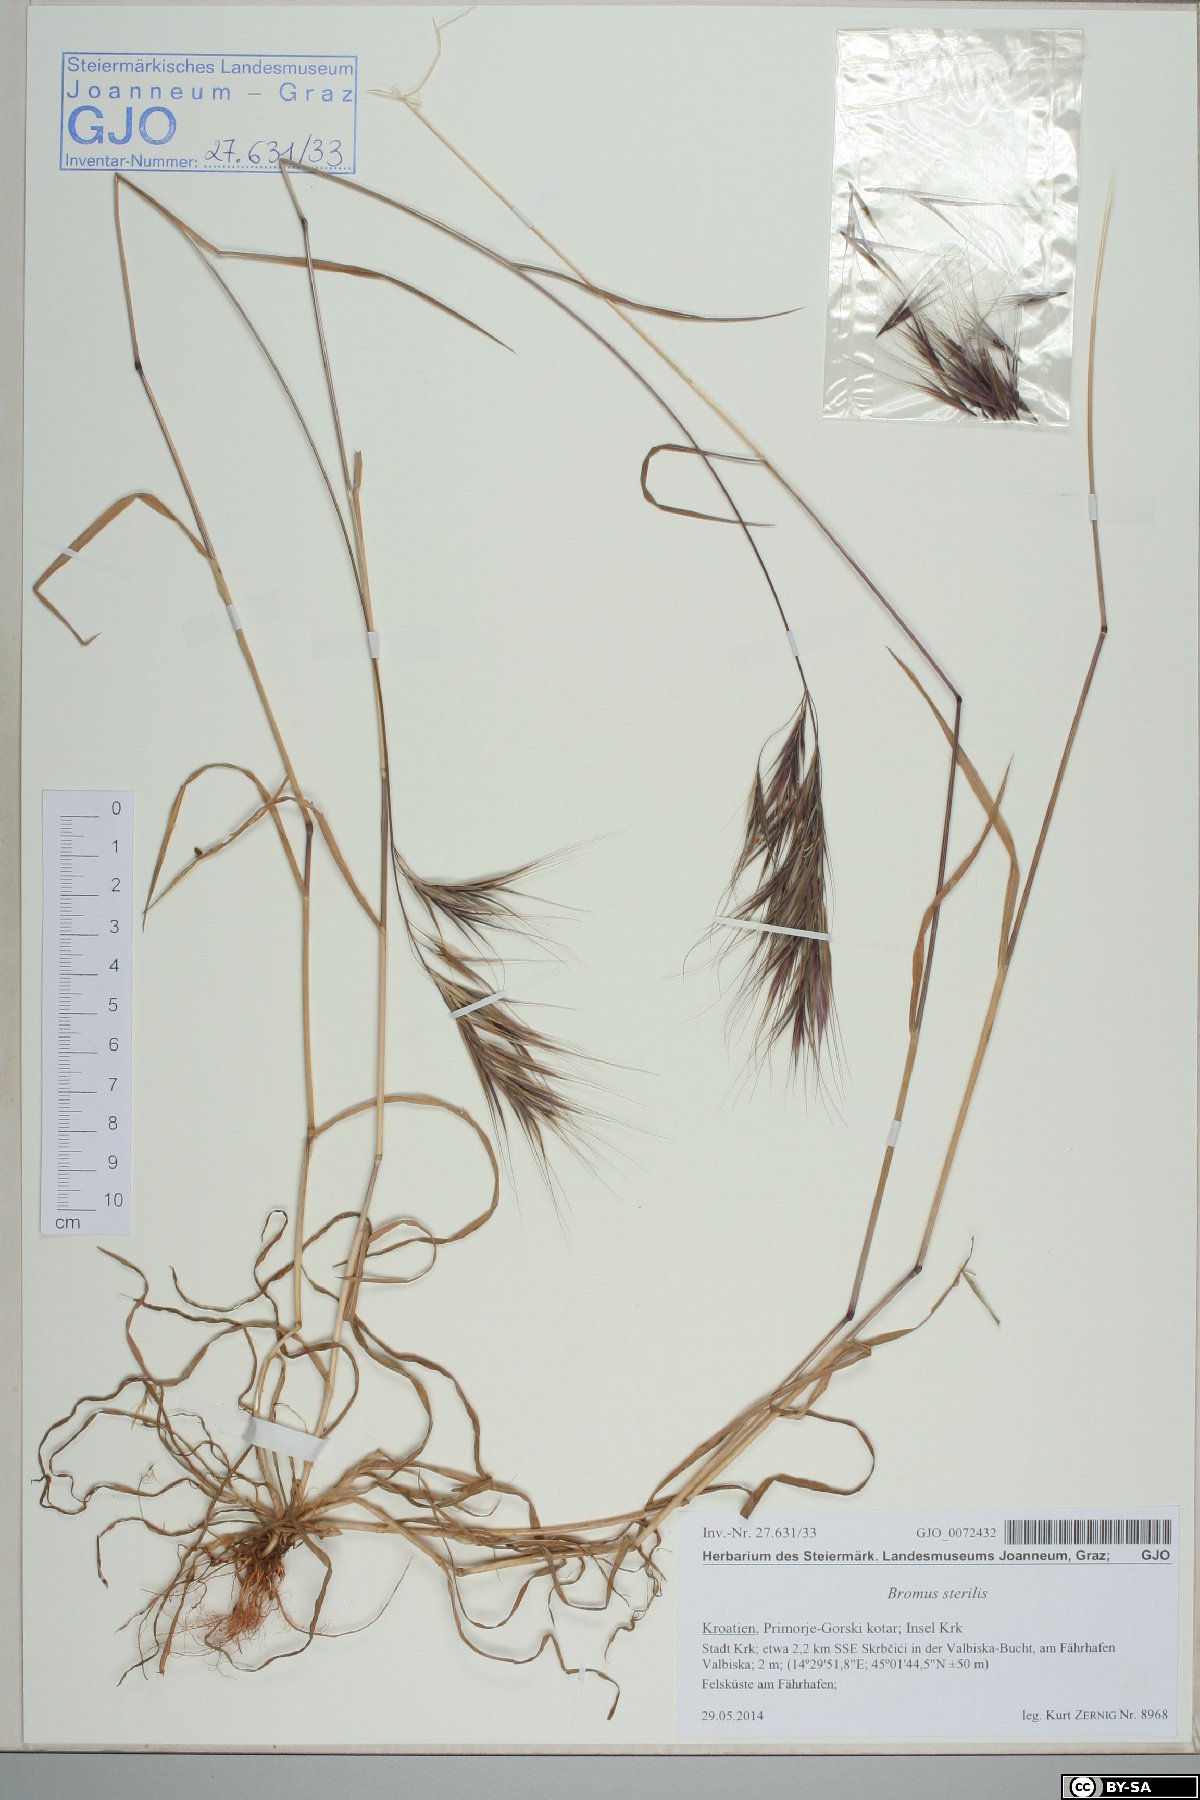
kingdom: Plantae
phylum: Tracheophyta
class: Liliopsida
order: Poales
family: Poaceae
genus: Bromus
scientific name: Bromus sterilis
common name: Poverty brome
